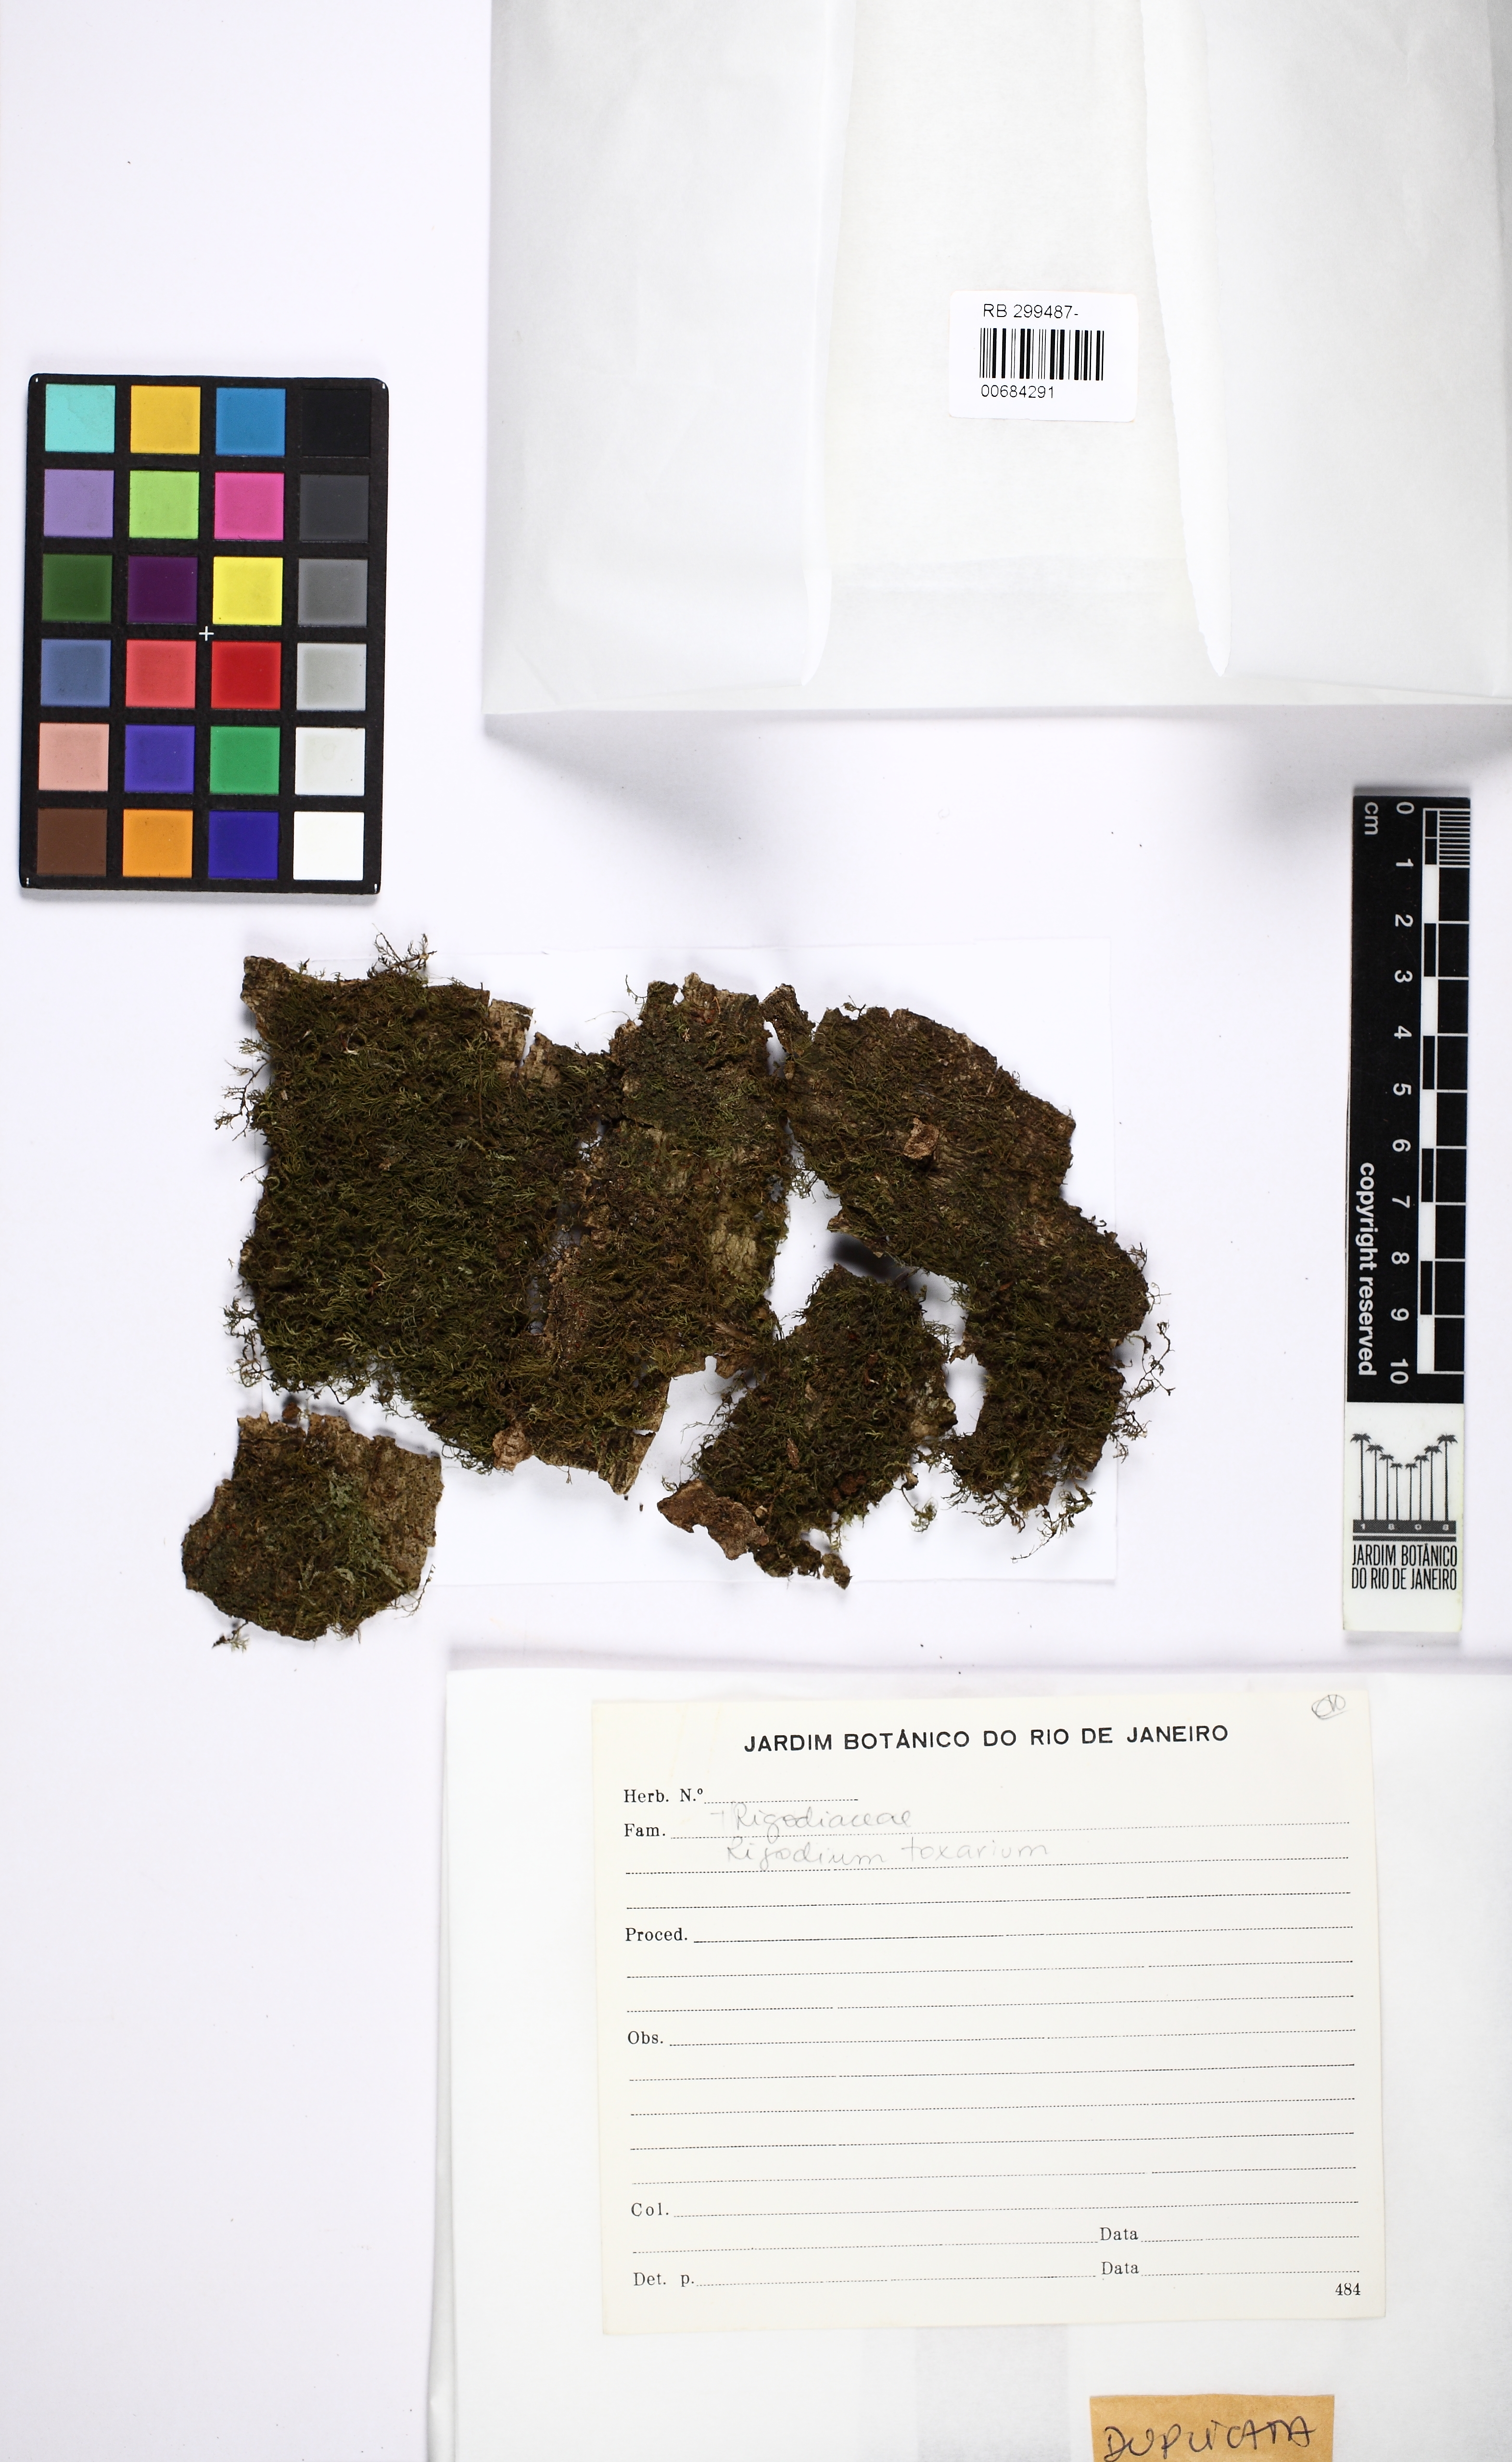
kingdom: Plantae
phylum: Bryophyta
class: Bryopsida
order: Hypnales
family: Lembophyllaceae
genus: Rigodium
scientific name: Rigodium toxarion
